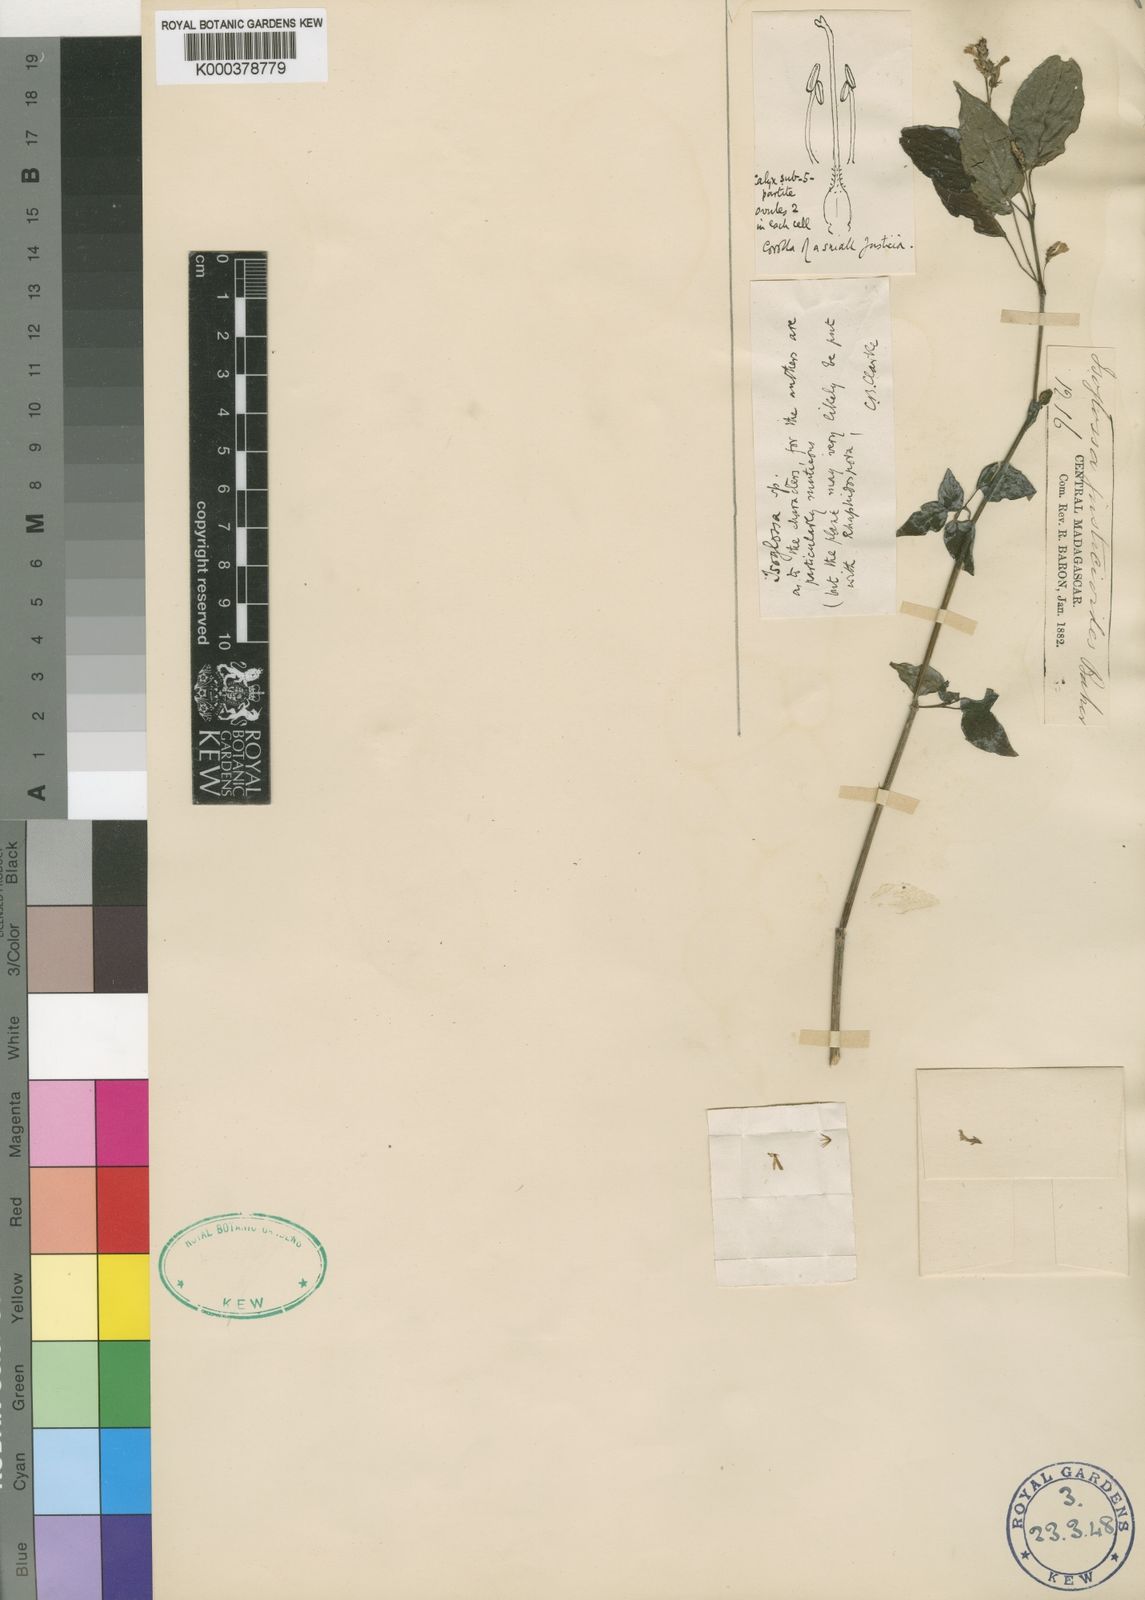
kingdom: Plantae
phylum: Tracheophyta
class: Magnoliopsida
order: Lamiales
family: Acanthaceae
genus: Isoglossa
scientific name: Isoglossa justicioides
